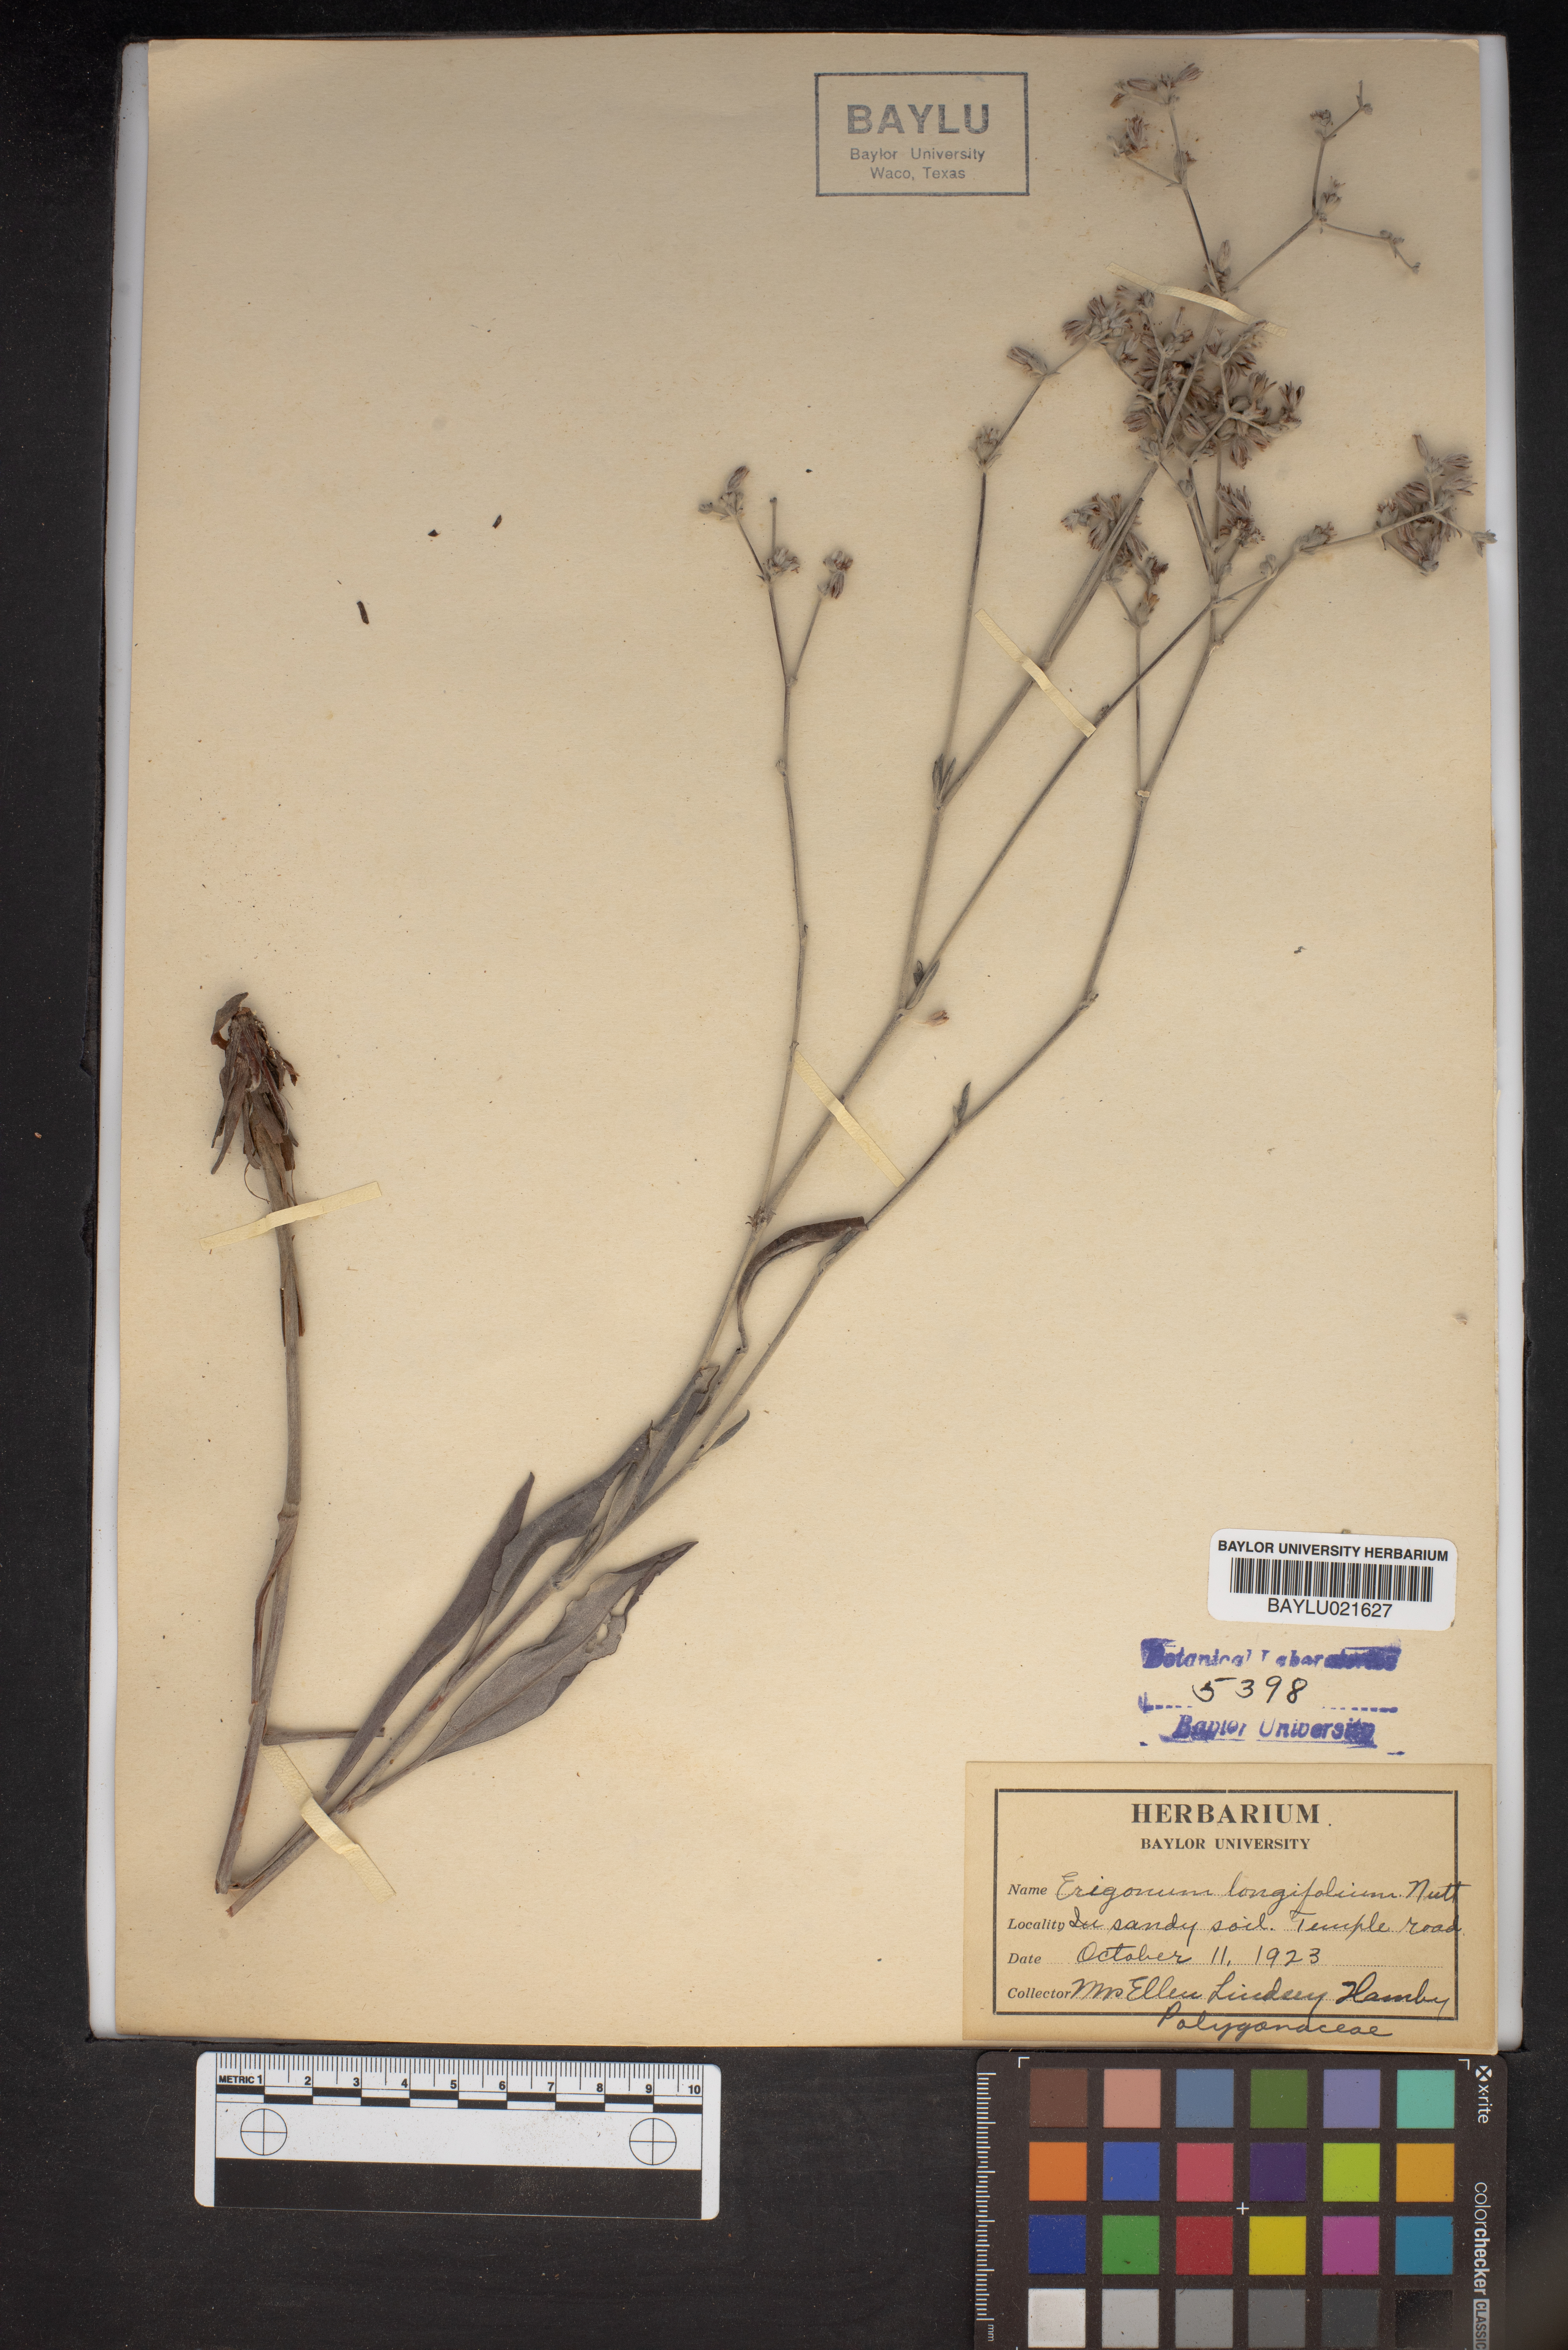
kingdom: Plantae
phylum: Tracheophyta
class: Magnoliopsida
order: Caryophyllales
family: Polygonaceae
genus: Eriogonum
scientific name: Eriogonum longifolium
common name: Longleaf wild buckwheat
